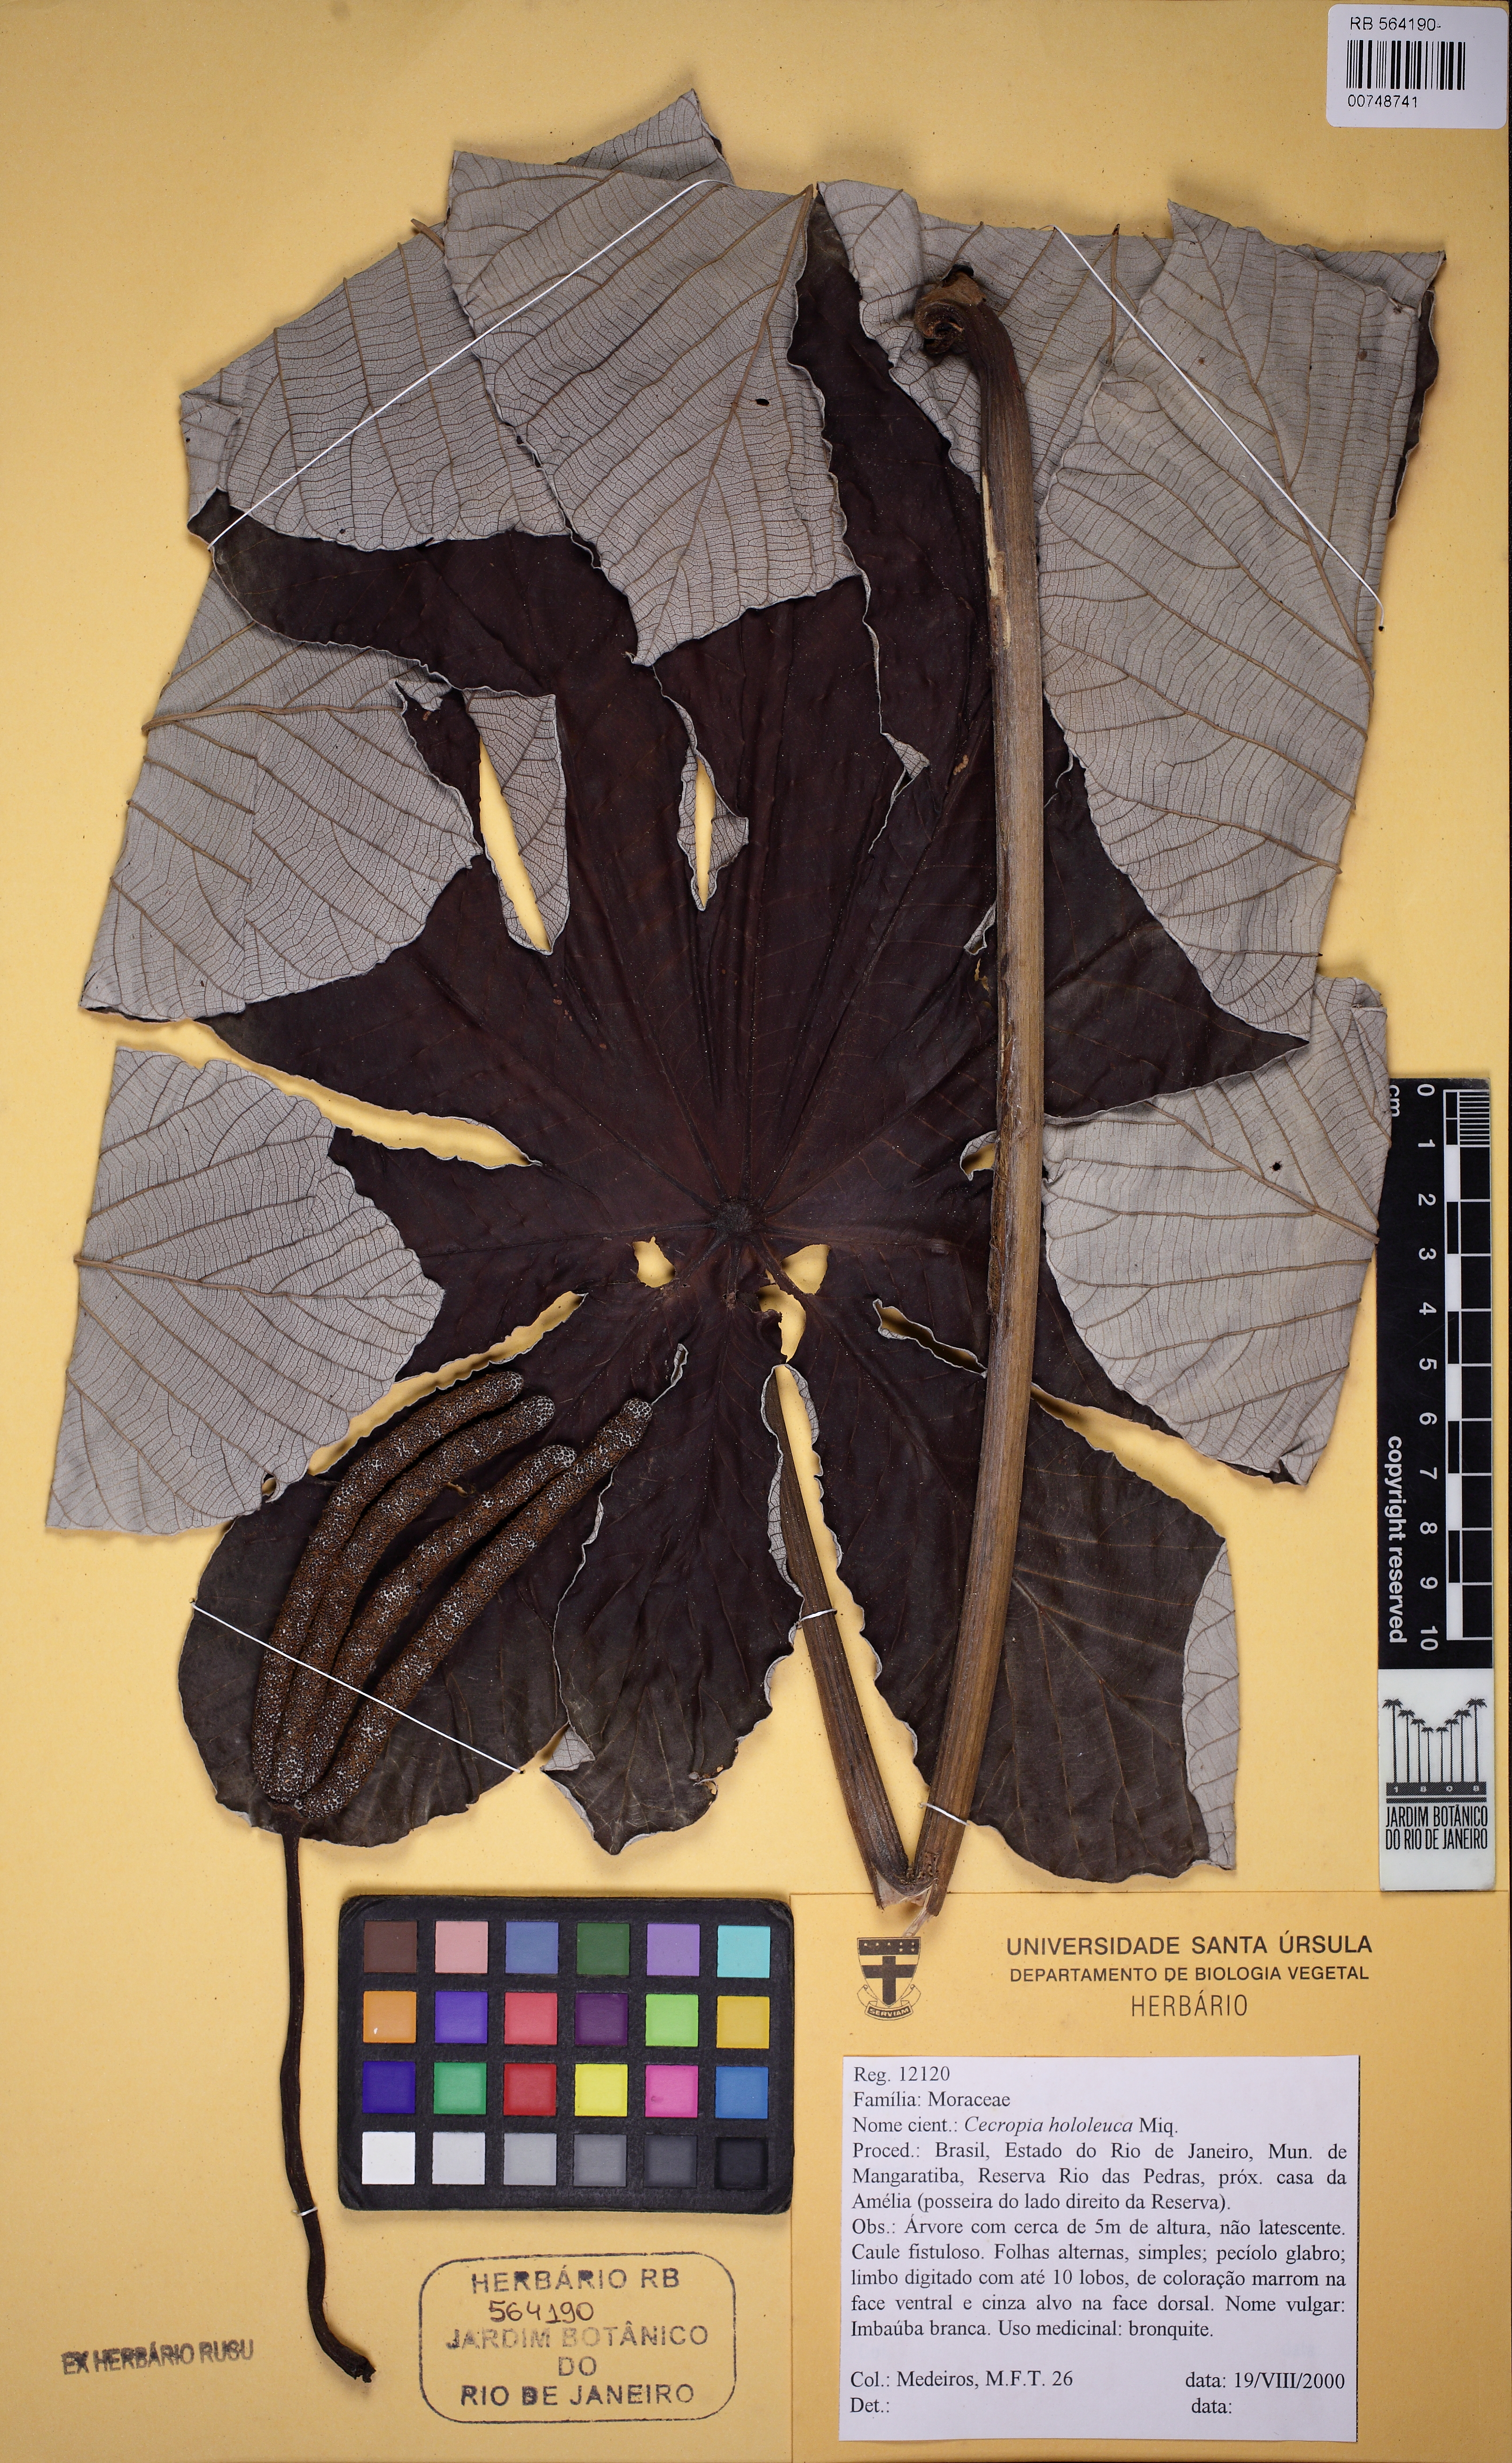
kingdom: Plantae
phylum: Tracheophyta
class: Magnoliopsida
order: Rosales
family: Urticaceae
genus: Cecropia
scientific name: Cecropia pachystachya
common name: Ambay pumpwood
